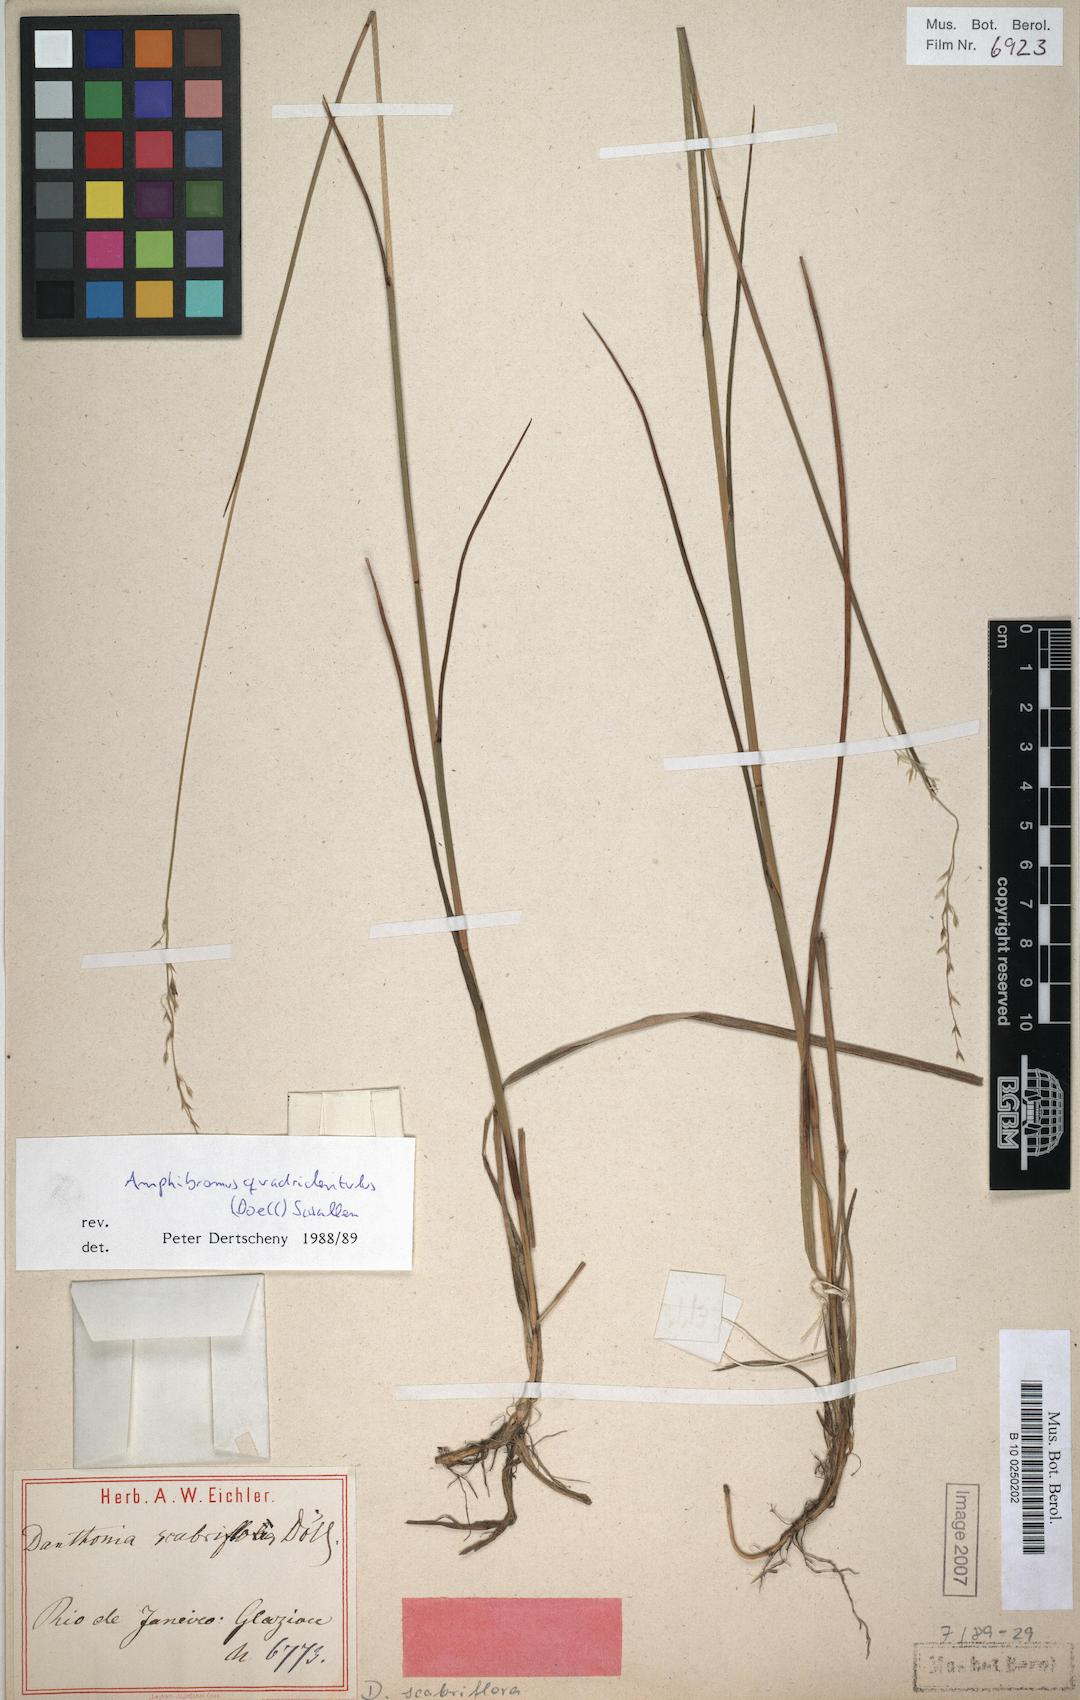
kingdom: Plantae
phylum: Tracheophyta
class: Liliopsida
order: Poales
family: Poaceae
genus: Amphibromus
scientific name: Amphibromus quadridentulus
